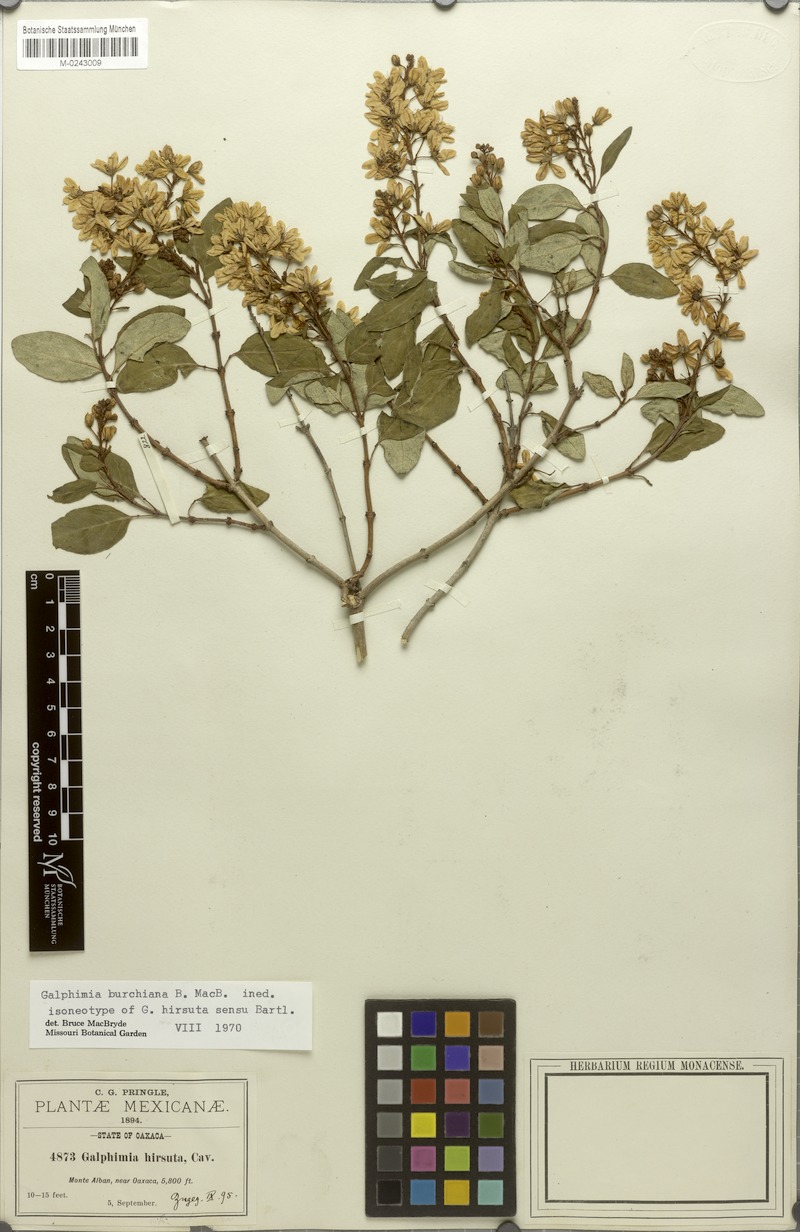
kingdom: Plantae
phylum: Tracheophyta
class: Magnoliopsida
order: Malpighiales
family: Malpighiaceae
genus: Galphimia
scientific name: Galphimia hirsuta
